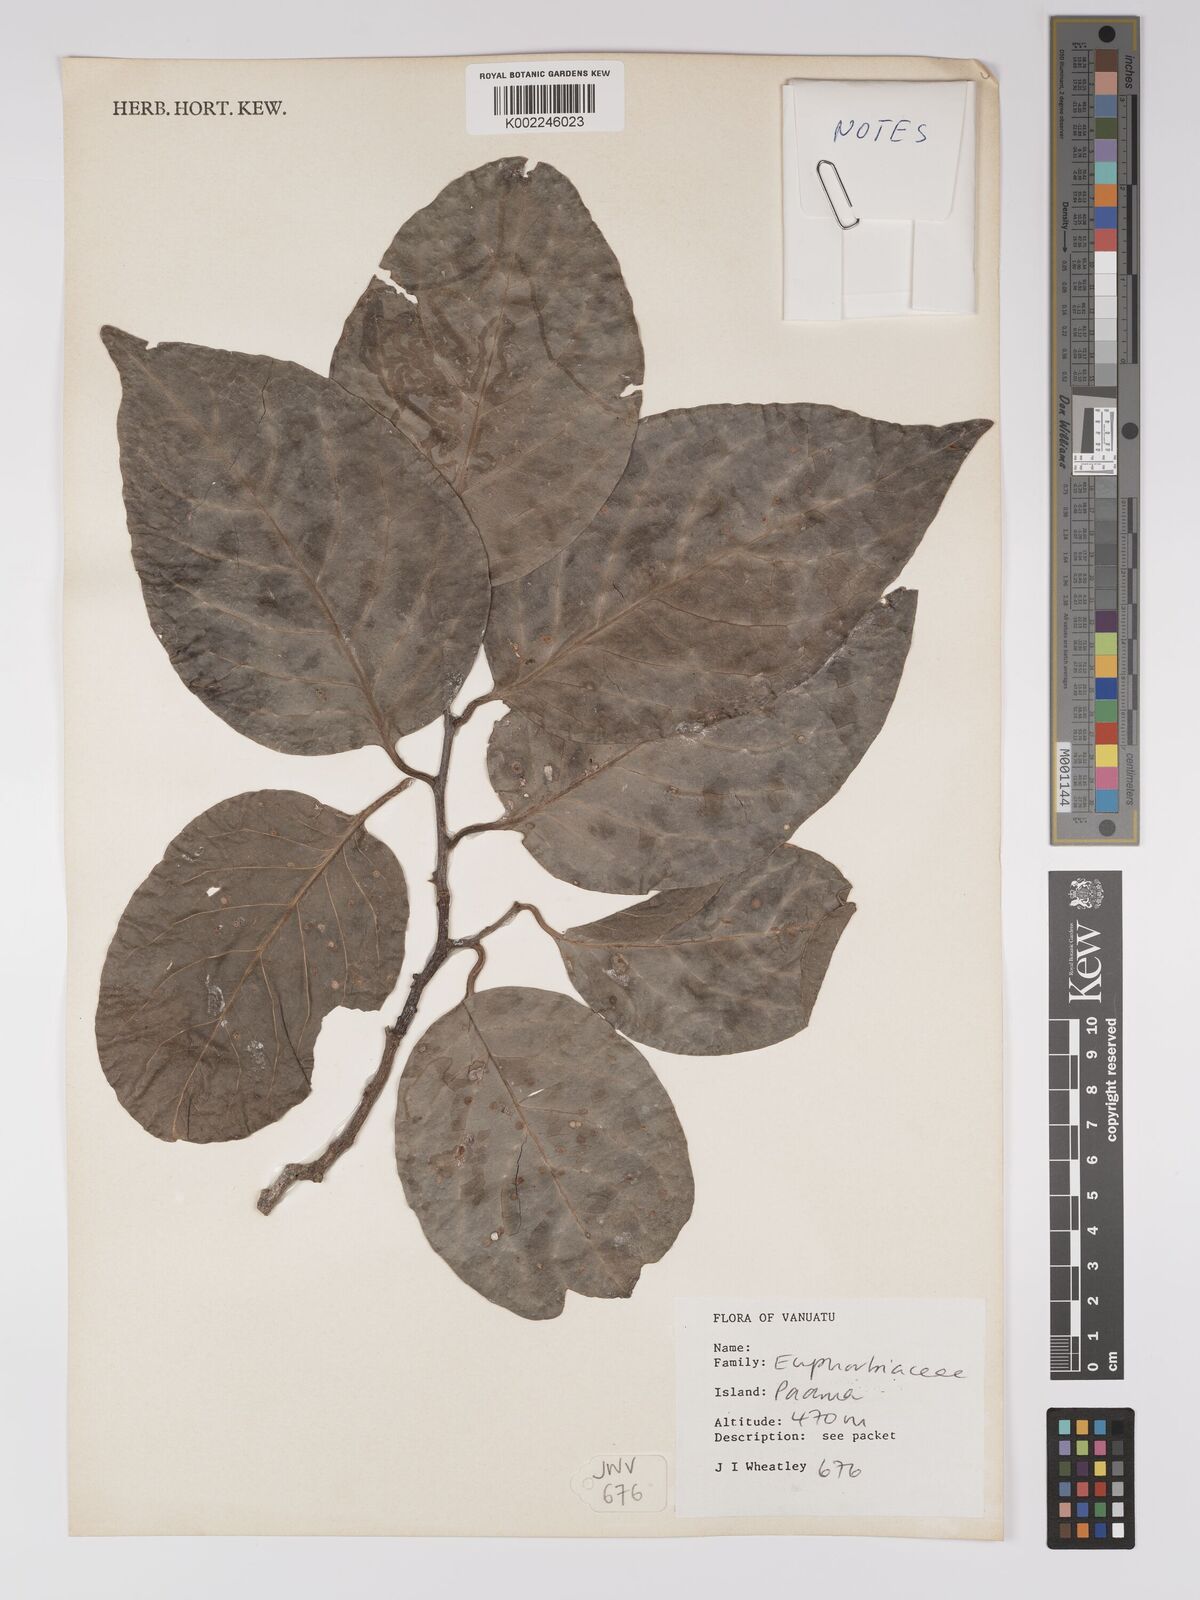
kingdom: Plantae
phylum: Tracheophyta
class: Magnoliopsida
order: Malpighiales
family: Euphorbiaceae
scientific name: Euphorbiaceae
